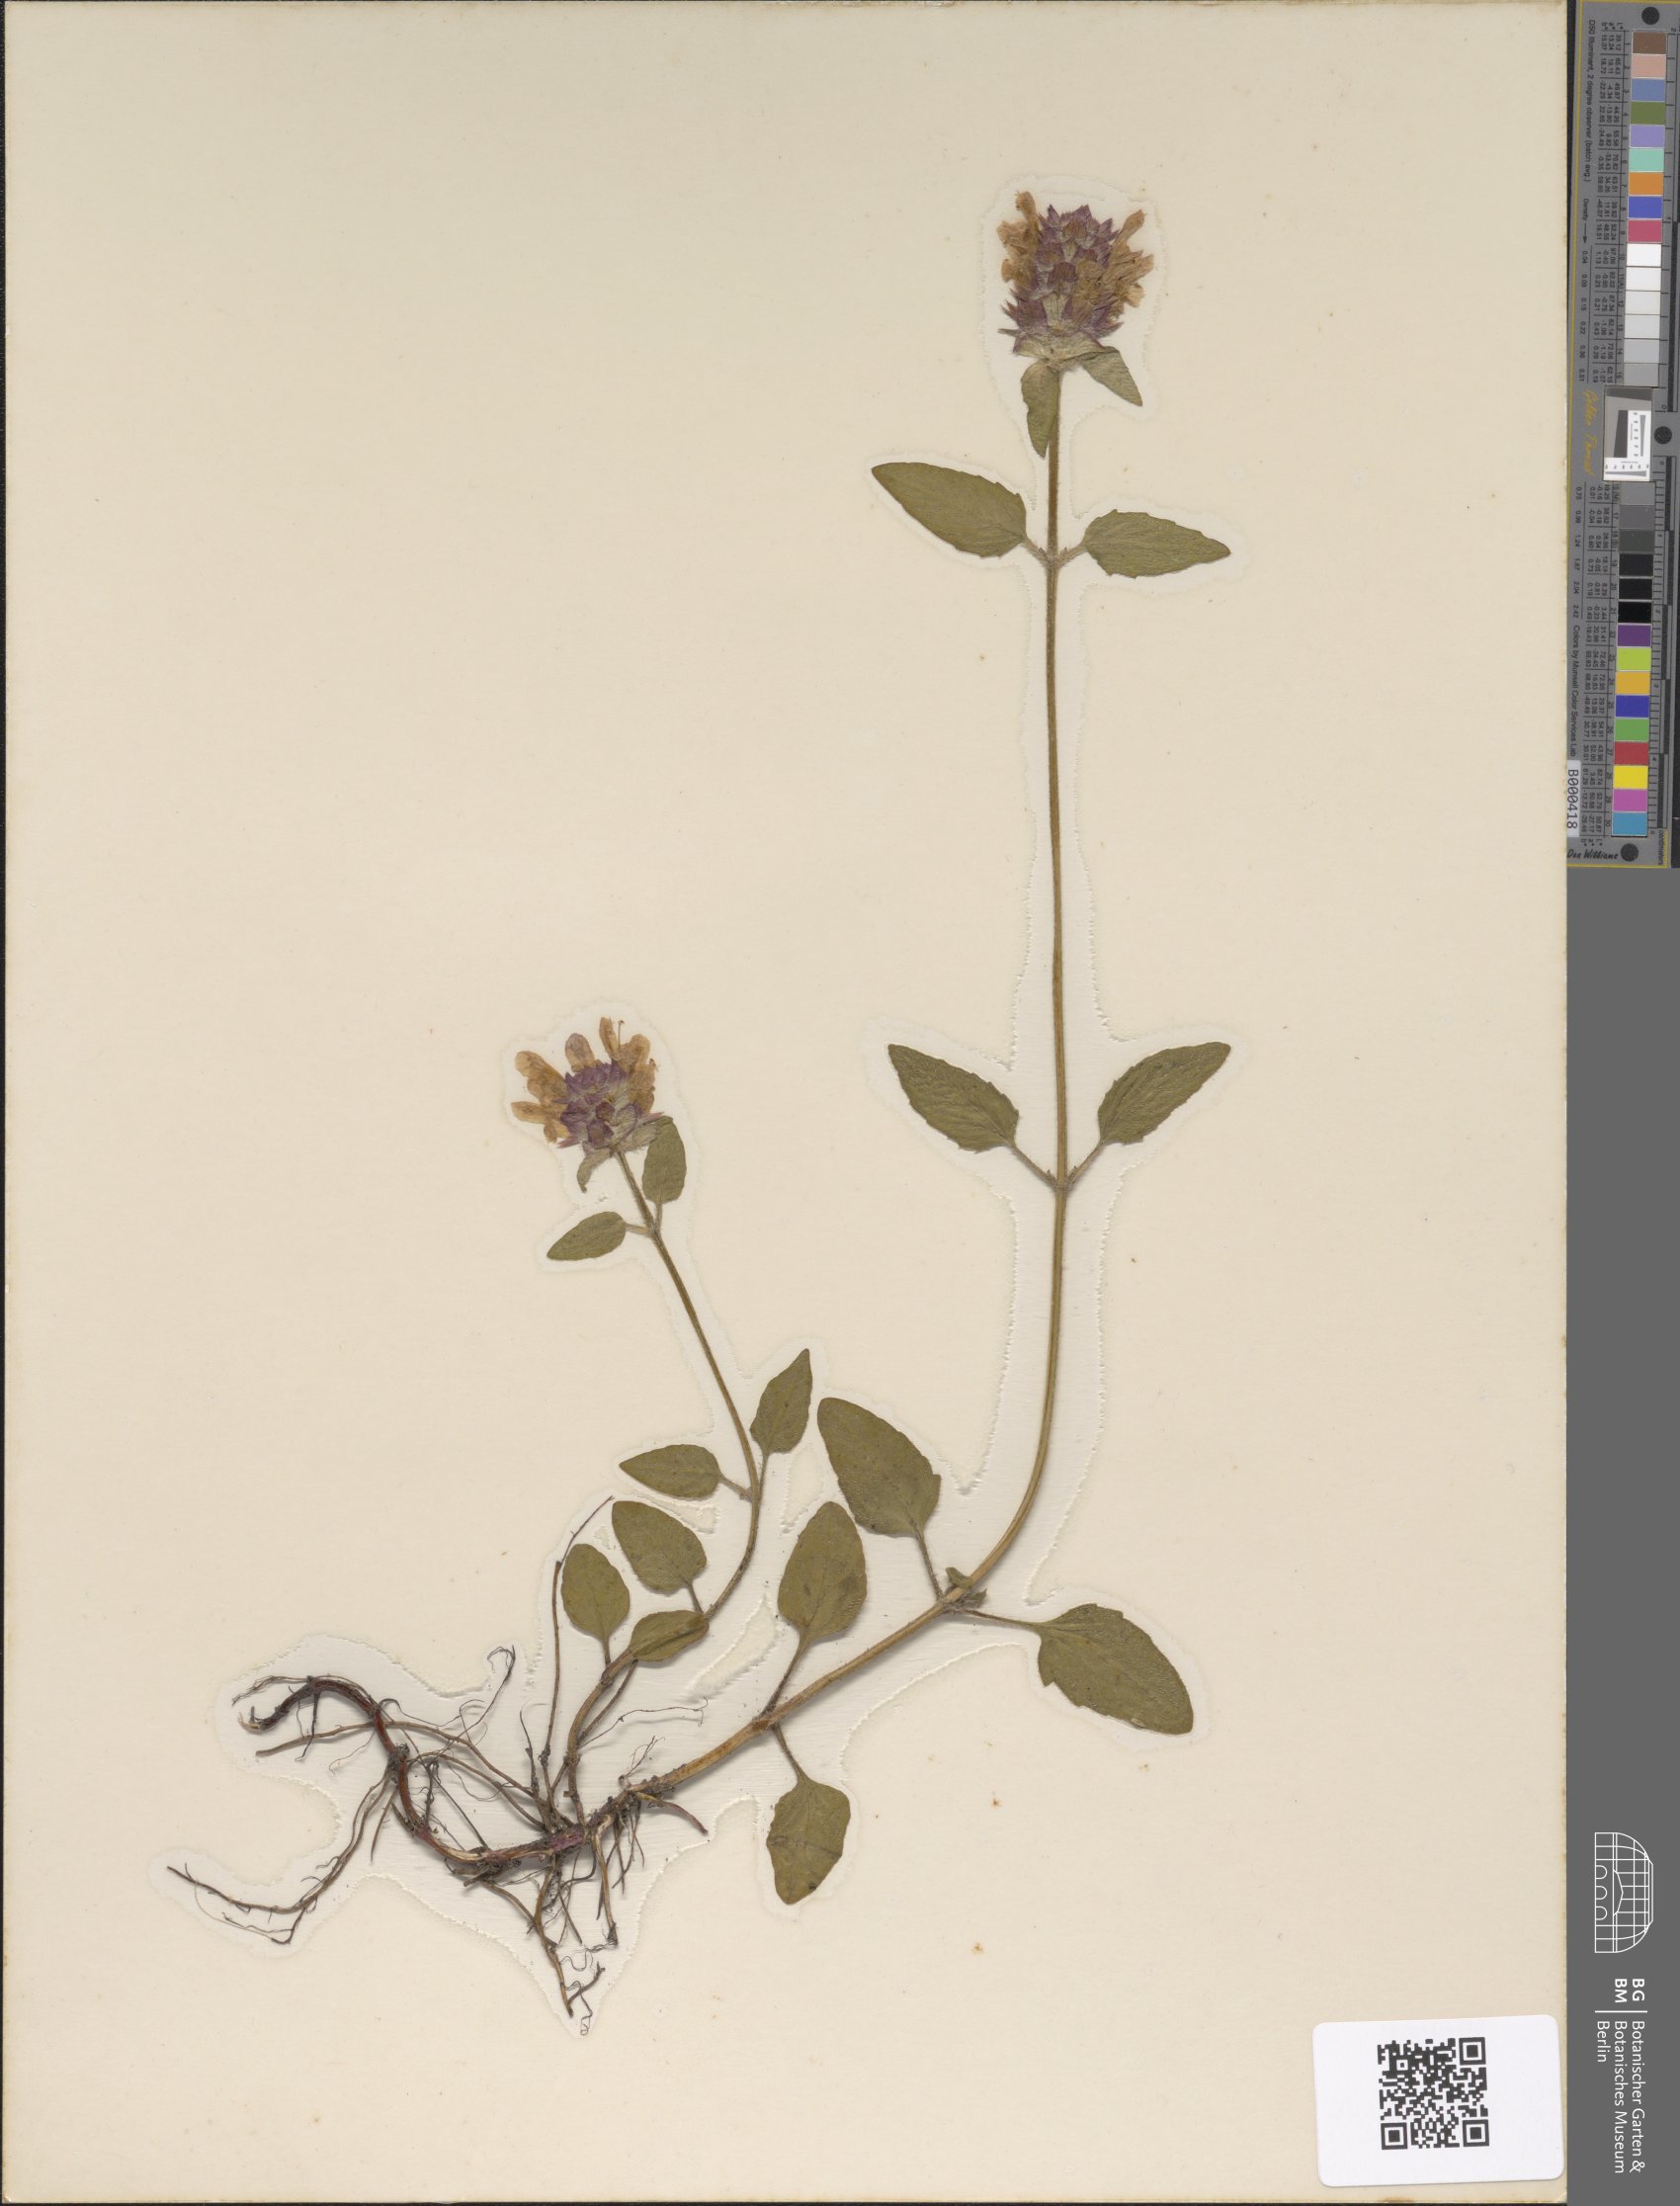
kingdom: Plantae
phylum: Tracheophyta
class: Magnoliopsida
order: Lamiales
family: Lamiaceae
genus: Prunella
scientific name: Prunella vulgaris
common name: Heal-all
